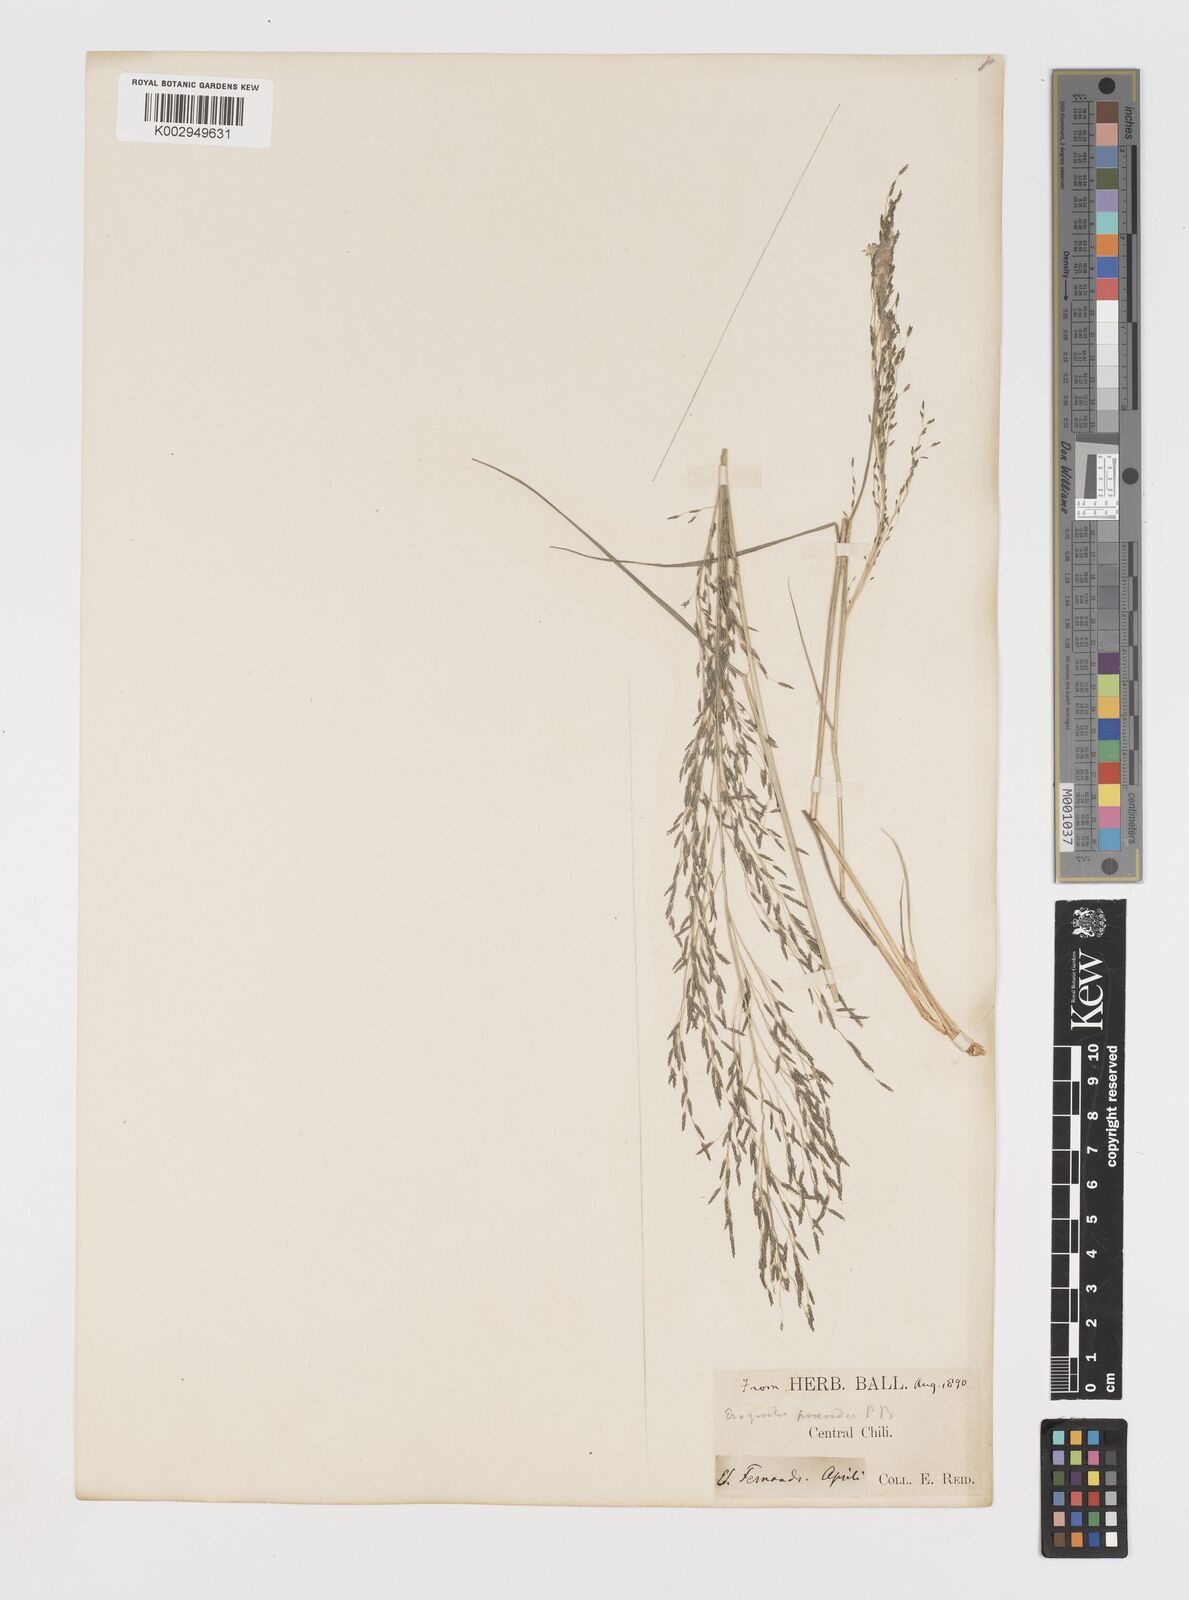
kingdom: Plantae
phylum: Tracheophyta
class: Liliopsida
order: Poales
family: Poaceae
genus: Eragrostis
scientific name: Eragrostis pilosa
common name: Indian lovegrass
